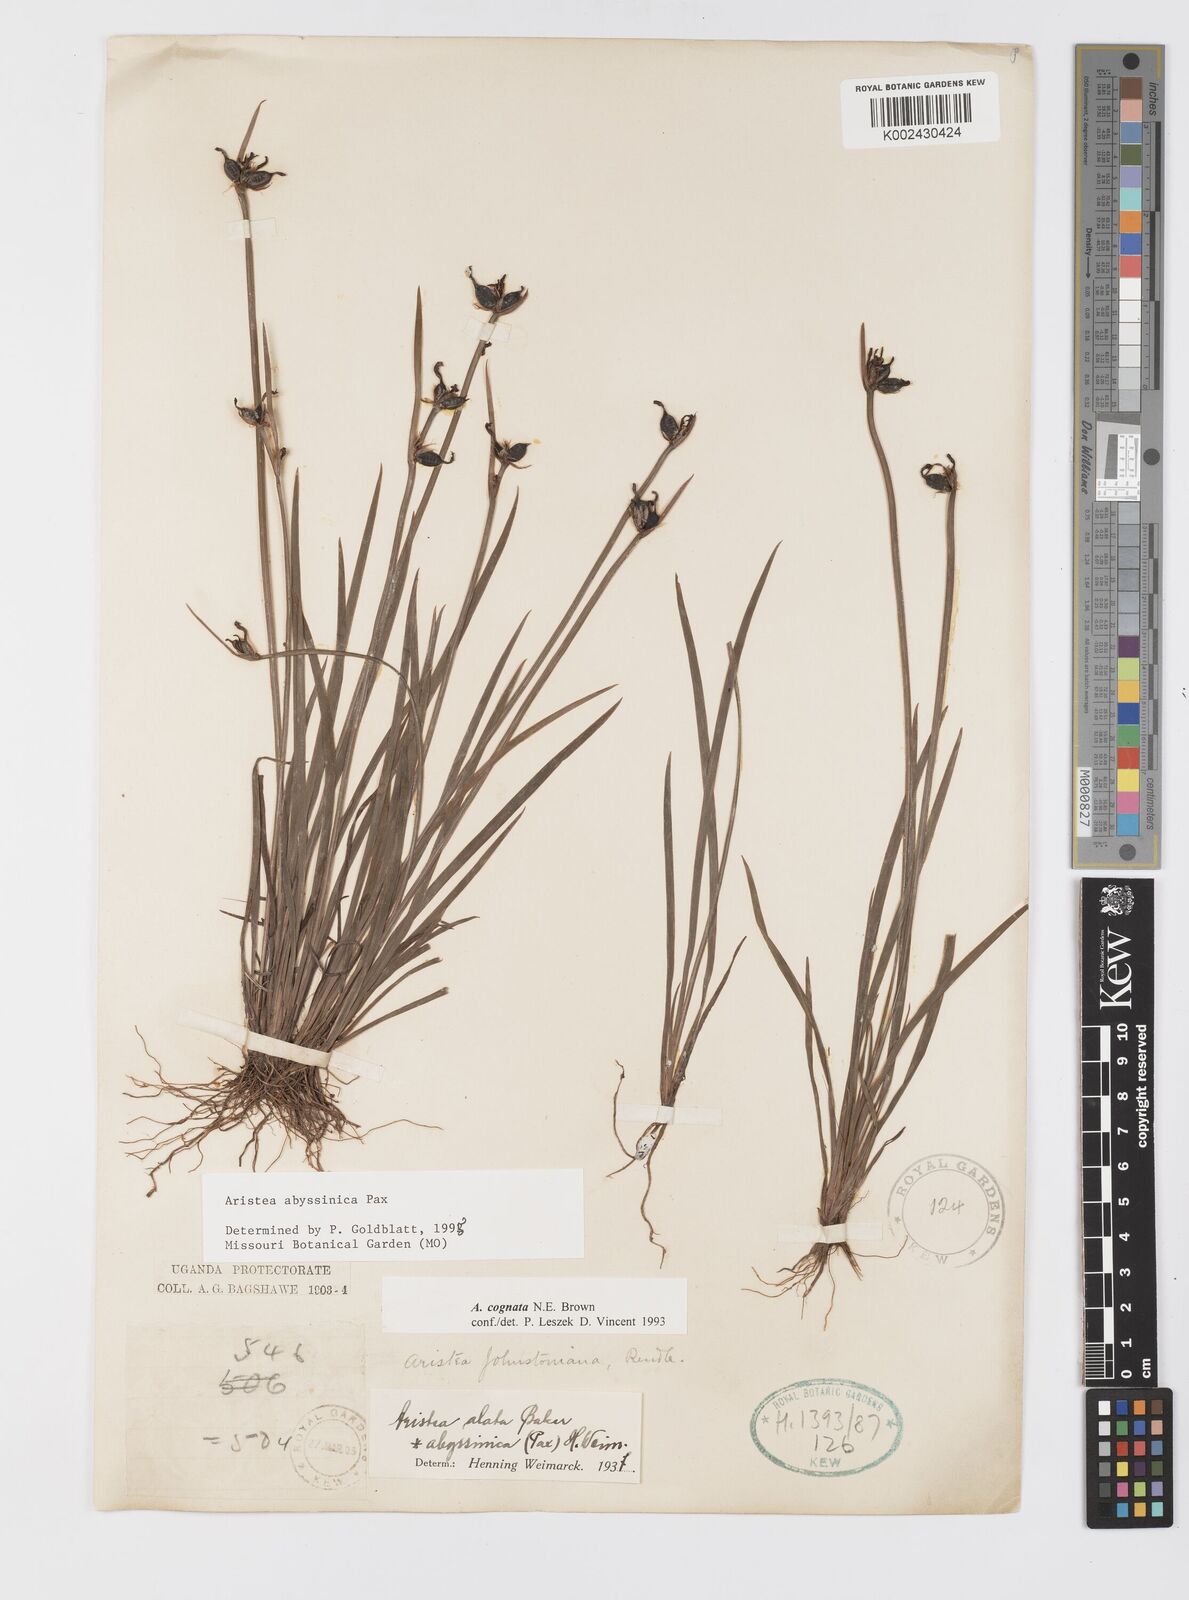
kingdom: Plantae
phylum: Tracheophyta
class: Liliopsida
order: Asparagales
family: Iridaceae
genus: Aristea
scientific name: Aristea abyssinica
